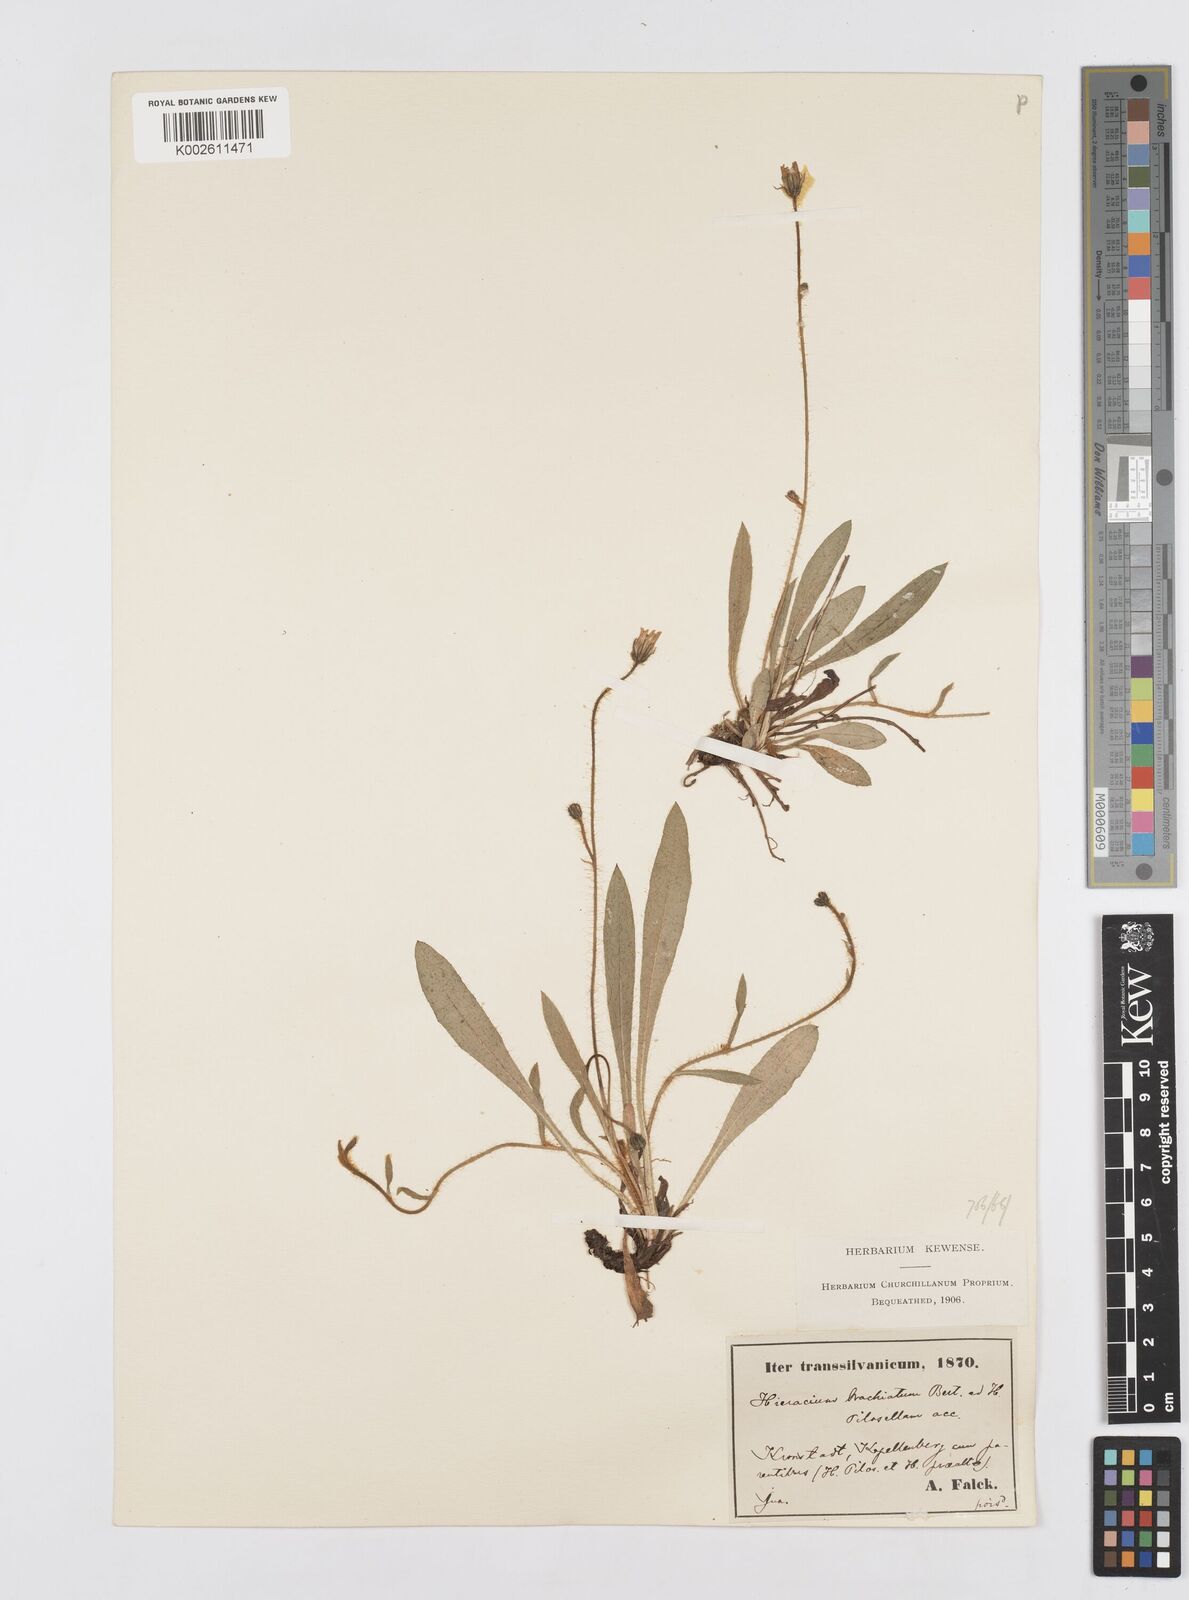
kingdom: Plantae
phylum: Tracheophyta
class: Magnoliopsida
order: Asterales
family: Asteraceae
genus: Pilosella
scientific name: Pilosella acutifolia
